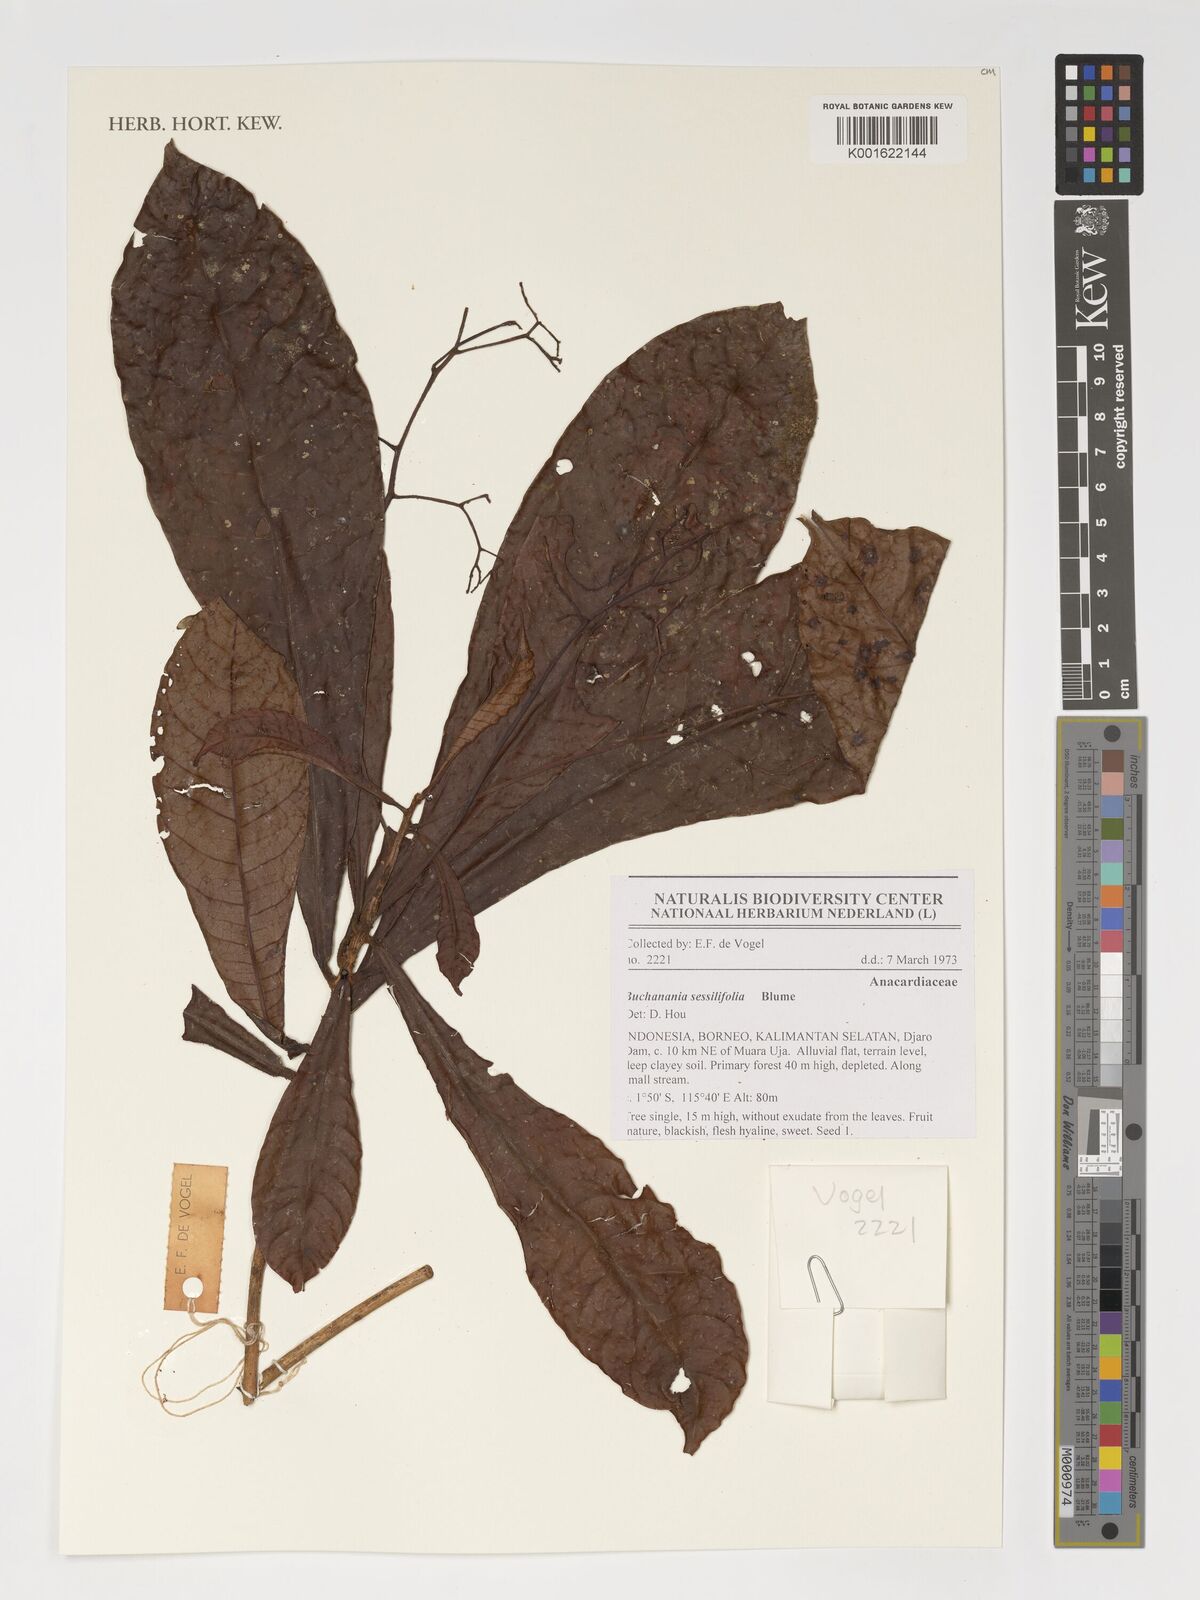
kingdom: Plantae
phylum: Tracheophyta
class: Magnoliopsida
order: Sapindales
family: Anacardiaceae
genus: Buchanania
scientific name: Buchanania
